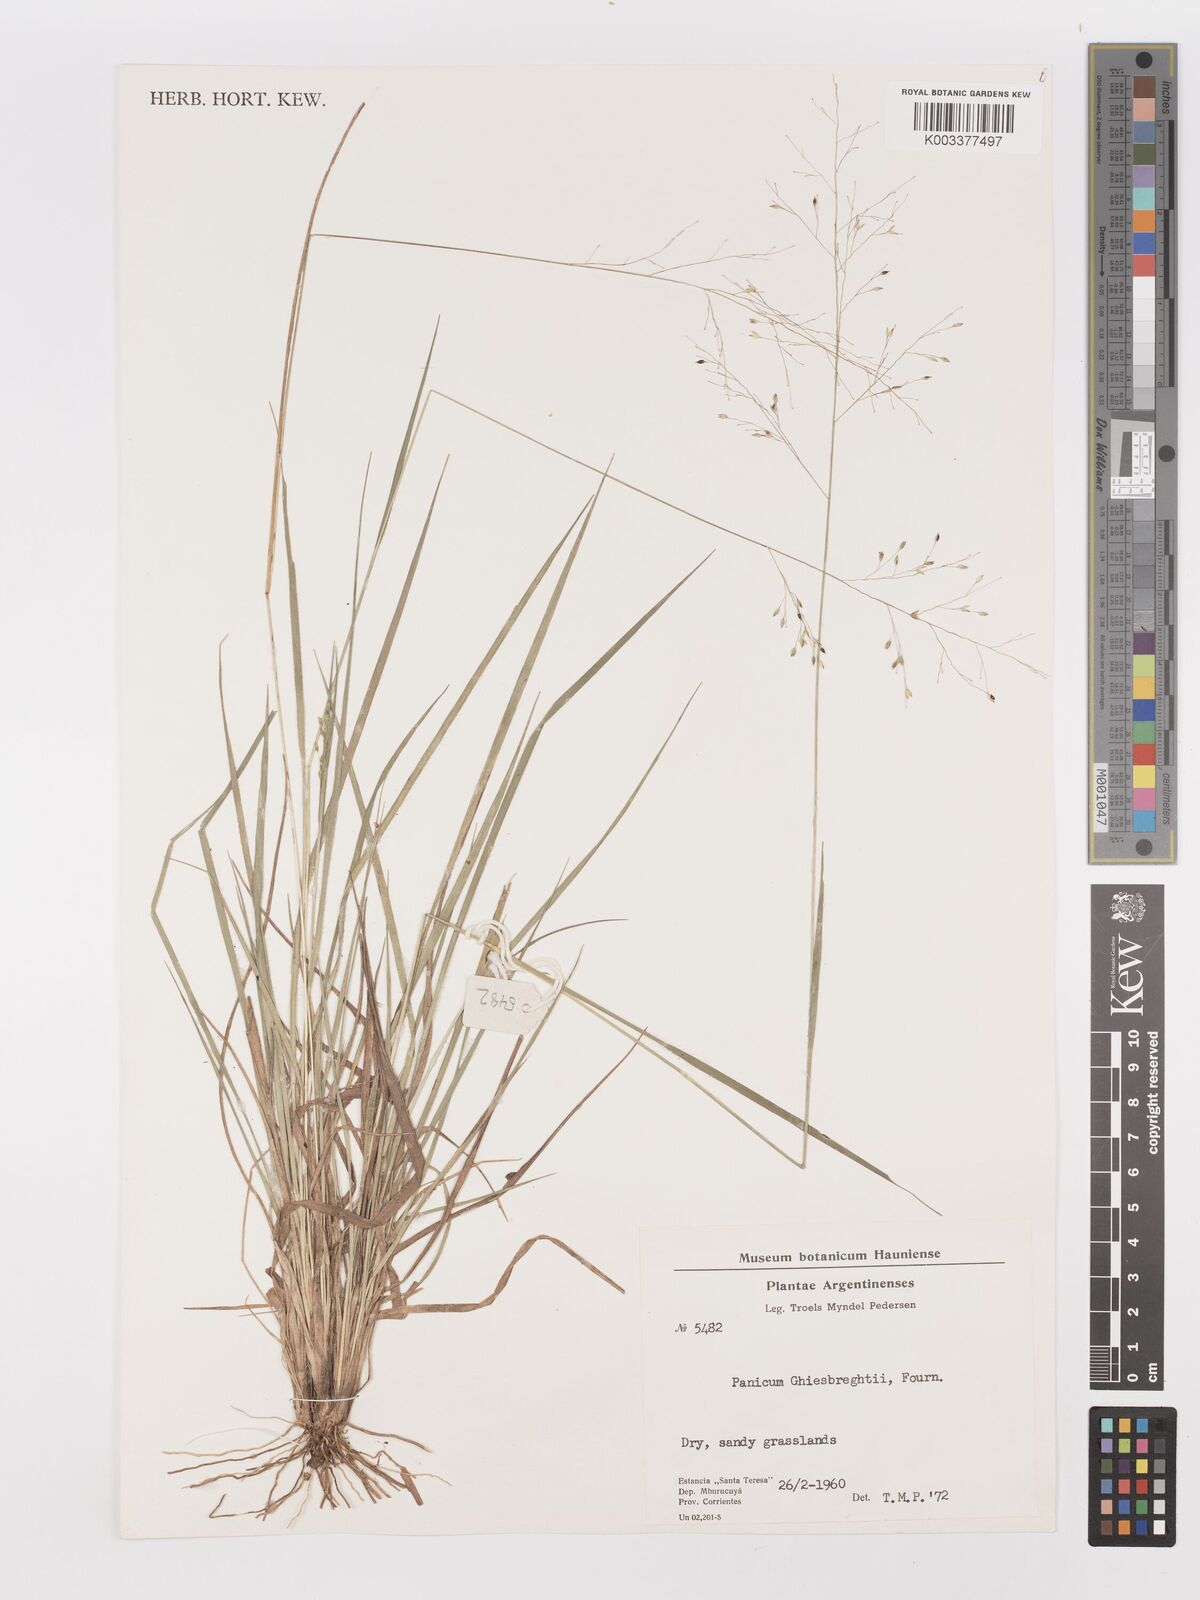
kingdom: Plantae
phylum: Tracheophyta
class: Liliopsida
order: Poales
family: Poaceae
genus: Panicum
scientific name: Panicum peladoense
